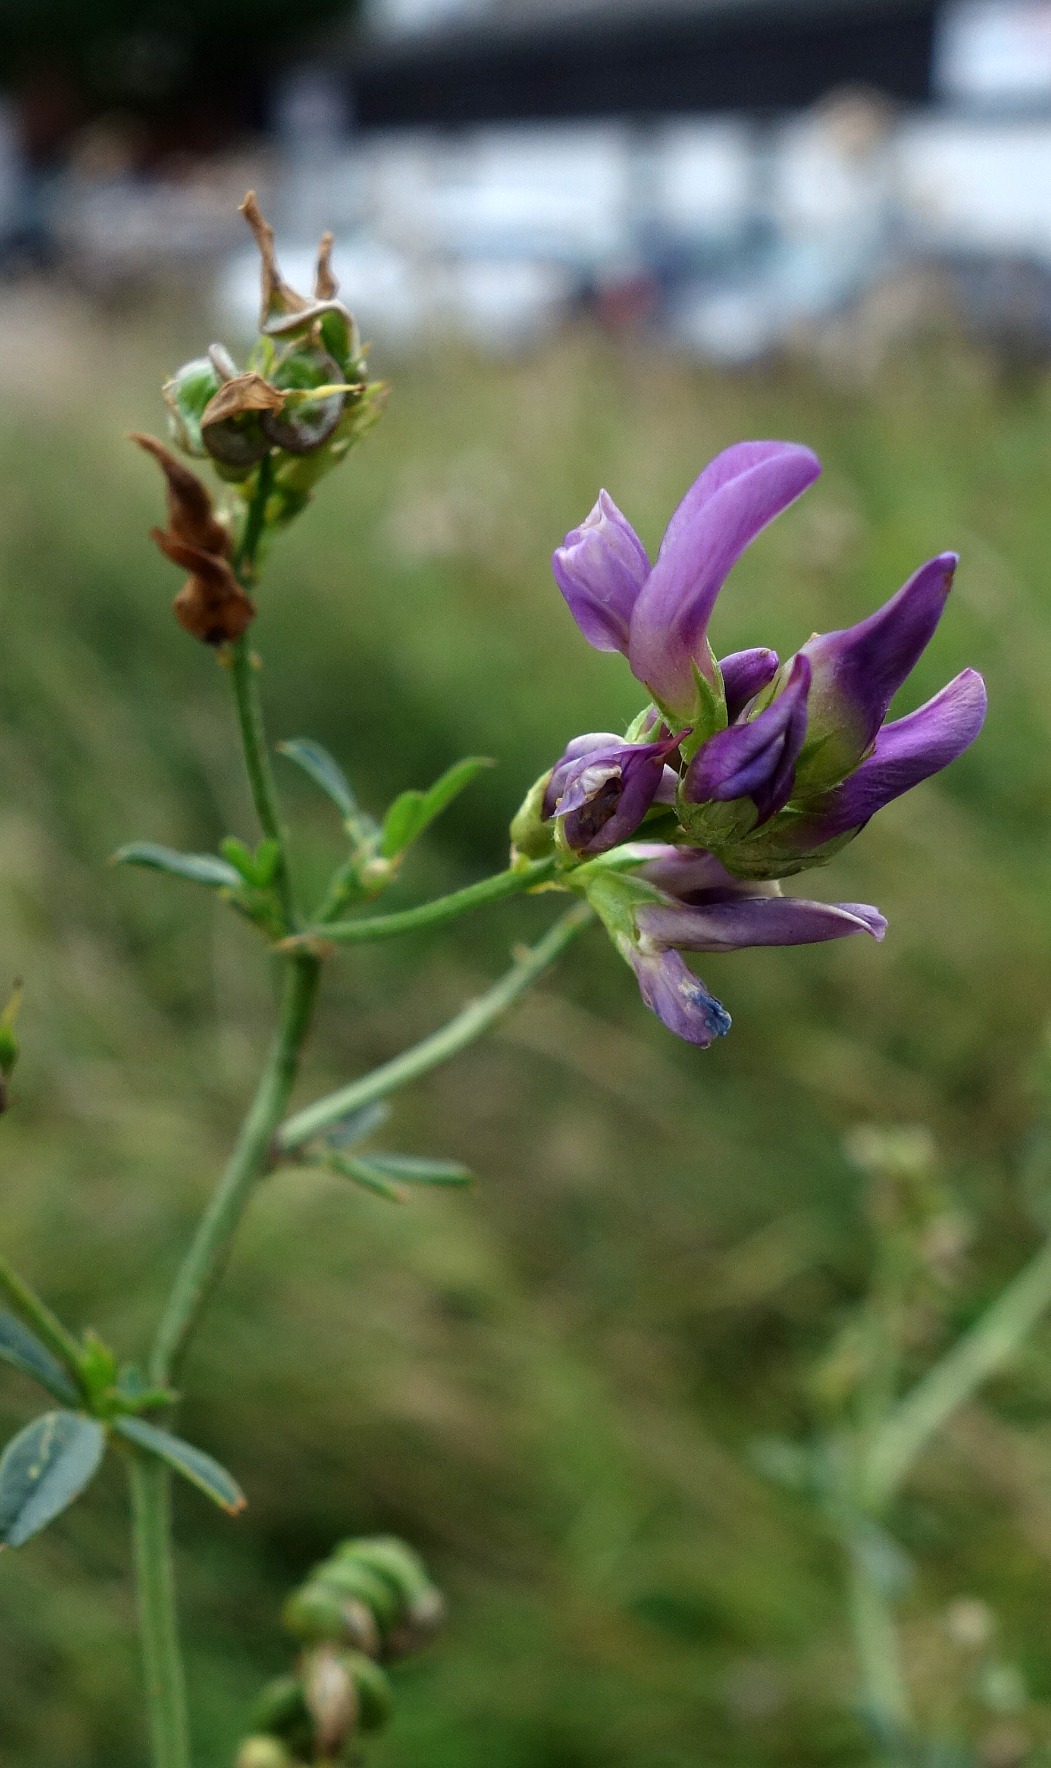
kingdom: Plantae
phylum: Tracheophyta
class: Magnoliopsida
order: Fabales
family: Fabaceae
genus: Medicago
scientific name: Medicago sativa
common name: Lucerne
